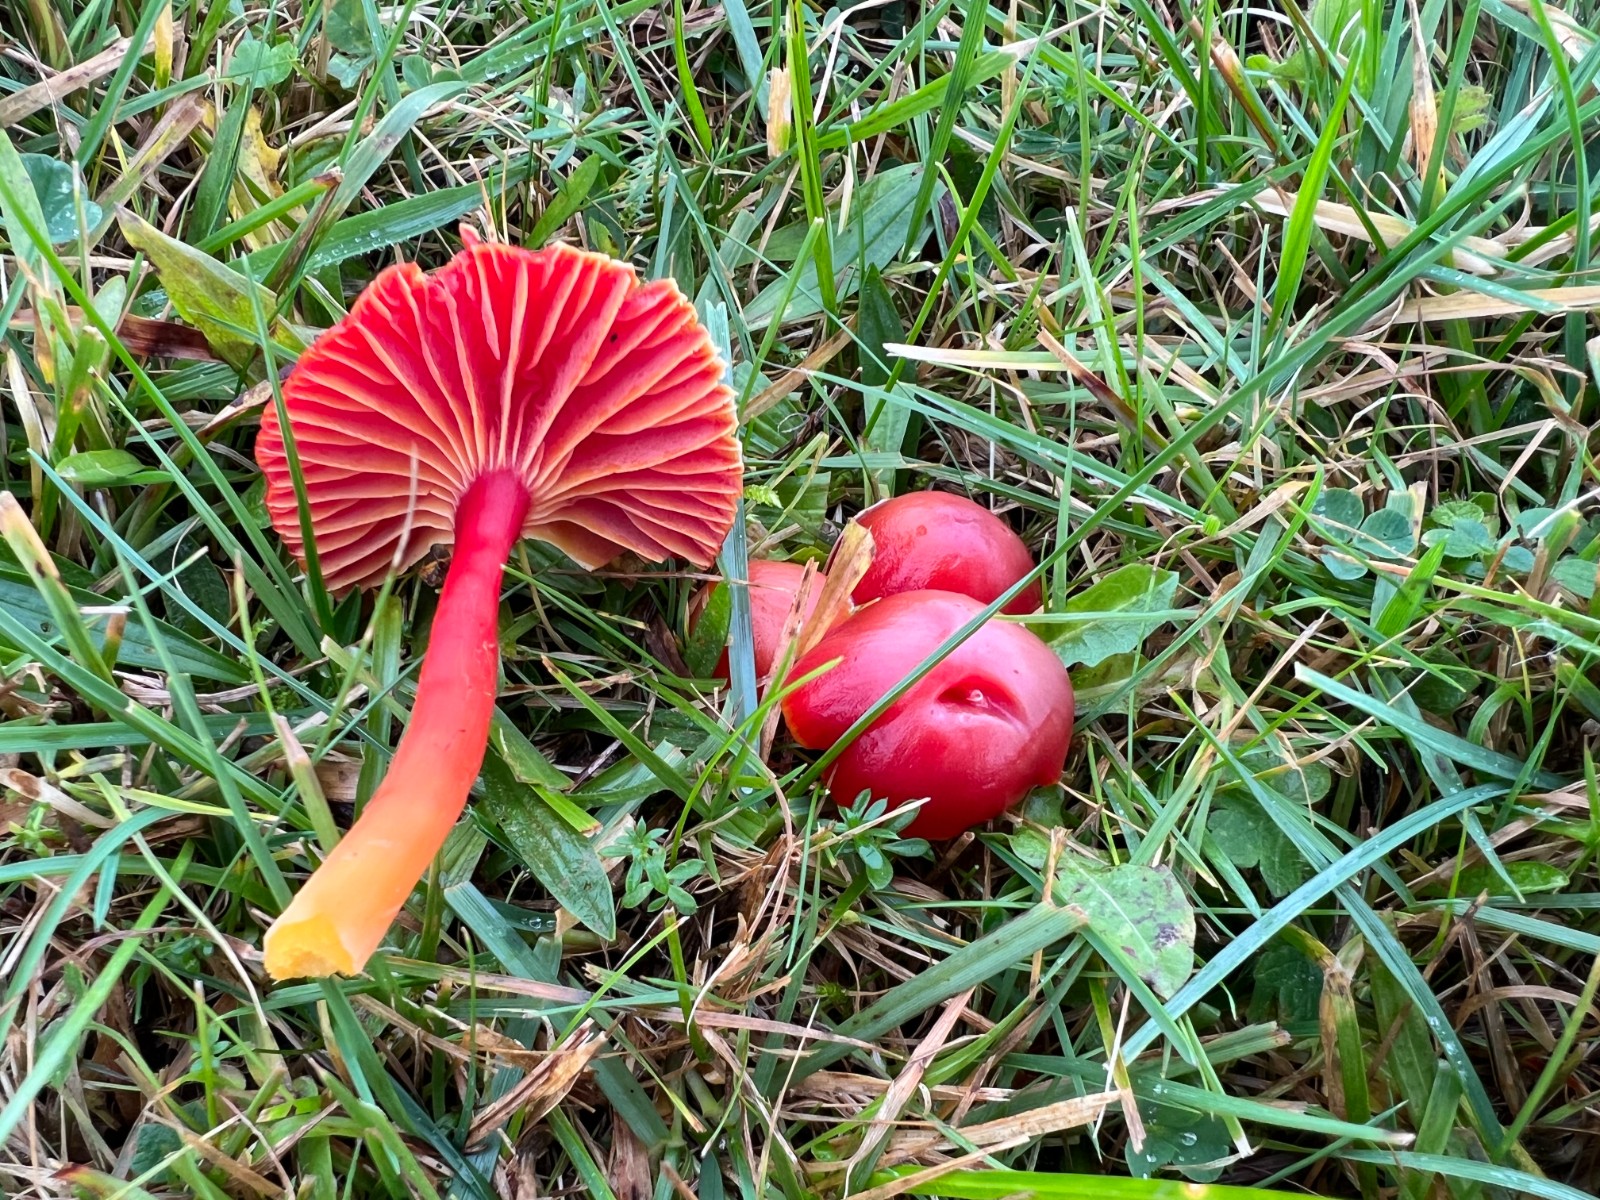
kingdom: Fungi
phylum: Basidiomycota
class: Agaricomycetes
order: Agaricales
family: Hygrophoraceae
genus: Hygrocybe
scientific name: Hygrocybe coccinea
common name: cinnober-vokshat
